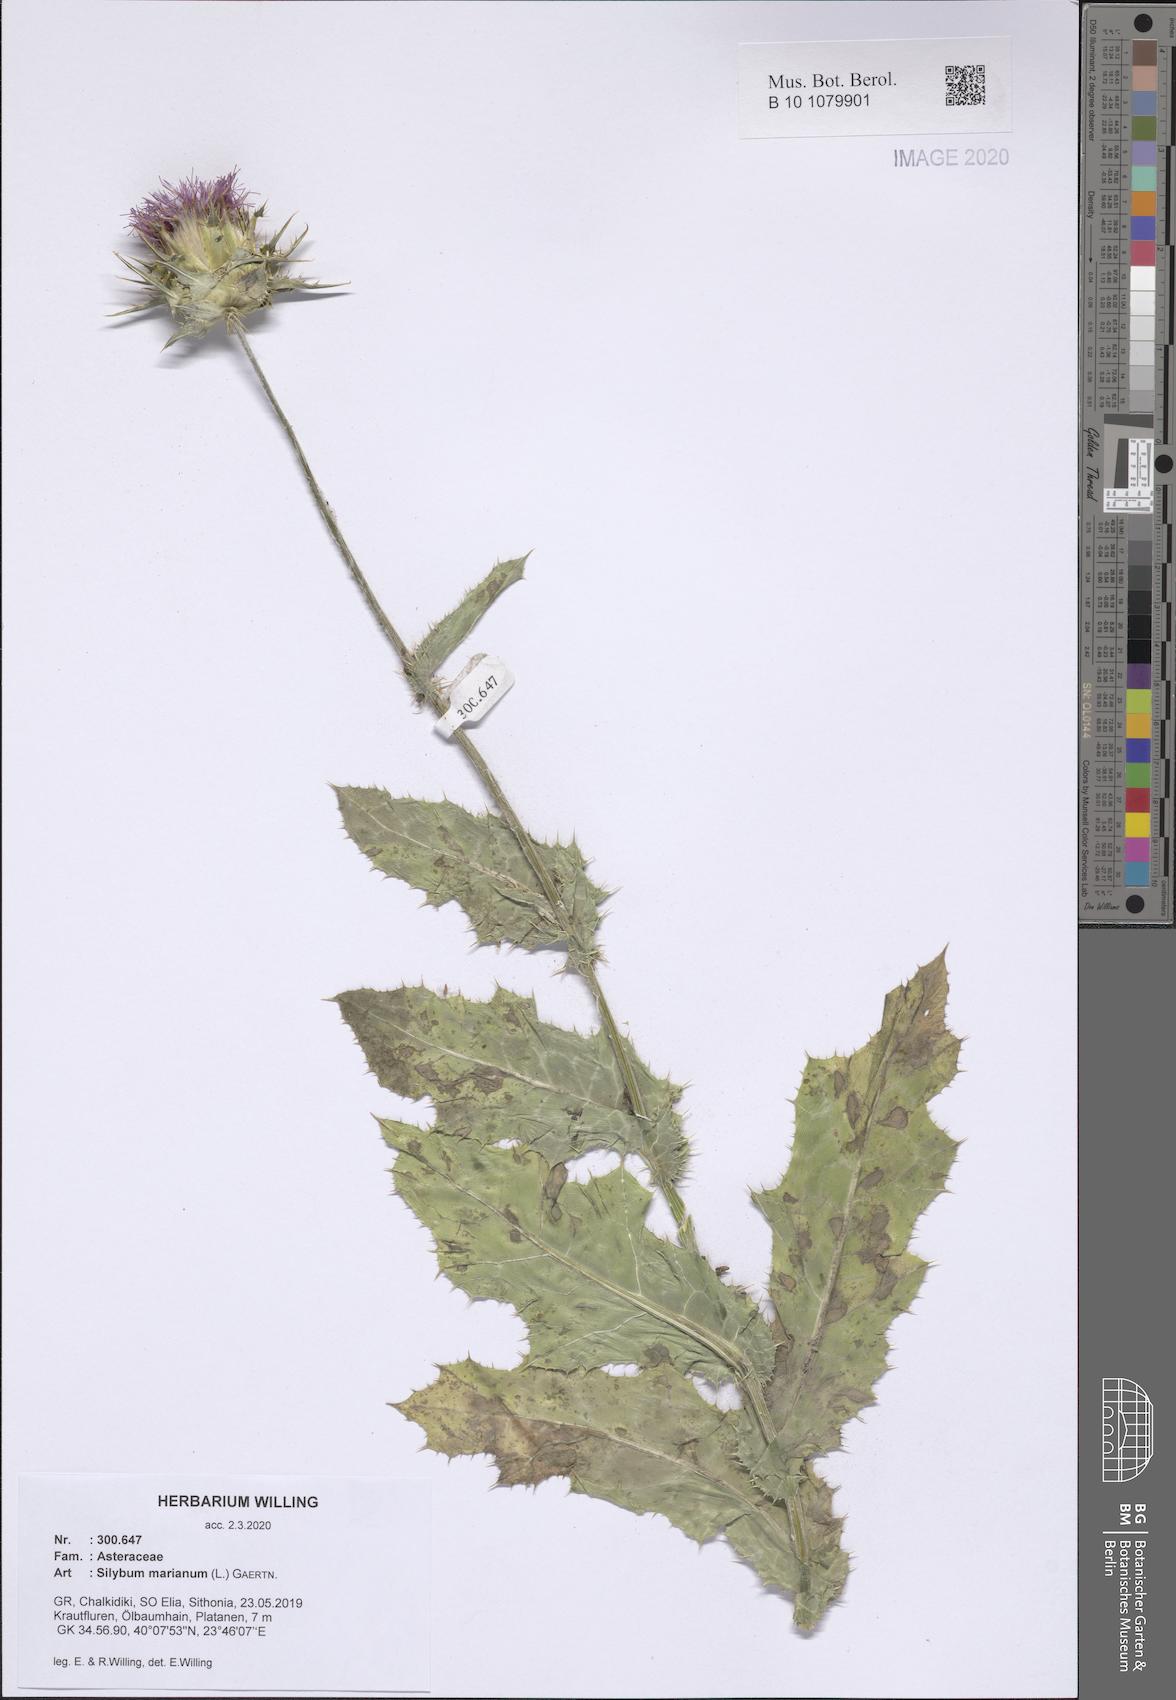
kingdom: Plantae
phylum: Tracheophyta
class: Magnoliopsida
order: Asterales
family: Asteraceae
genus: Silybum
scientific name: Silybum marianum
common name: Milk thistle
